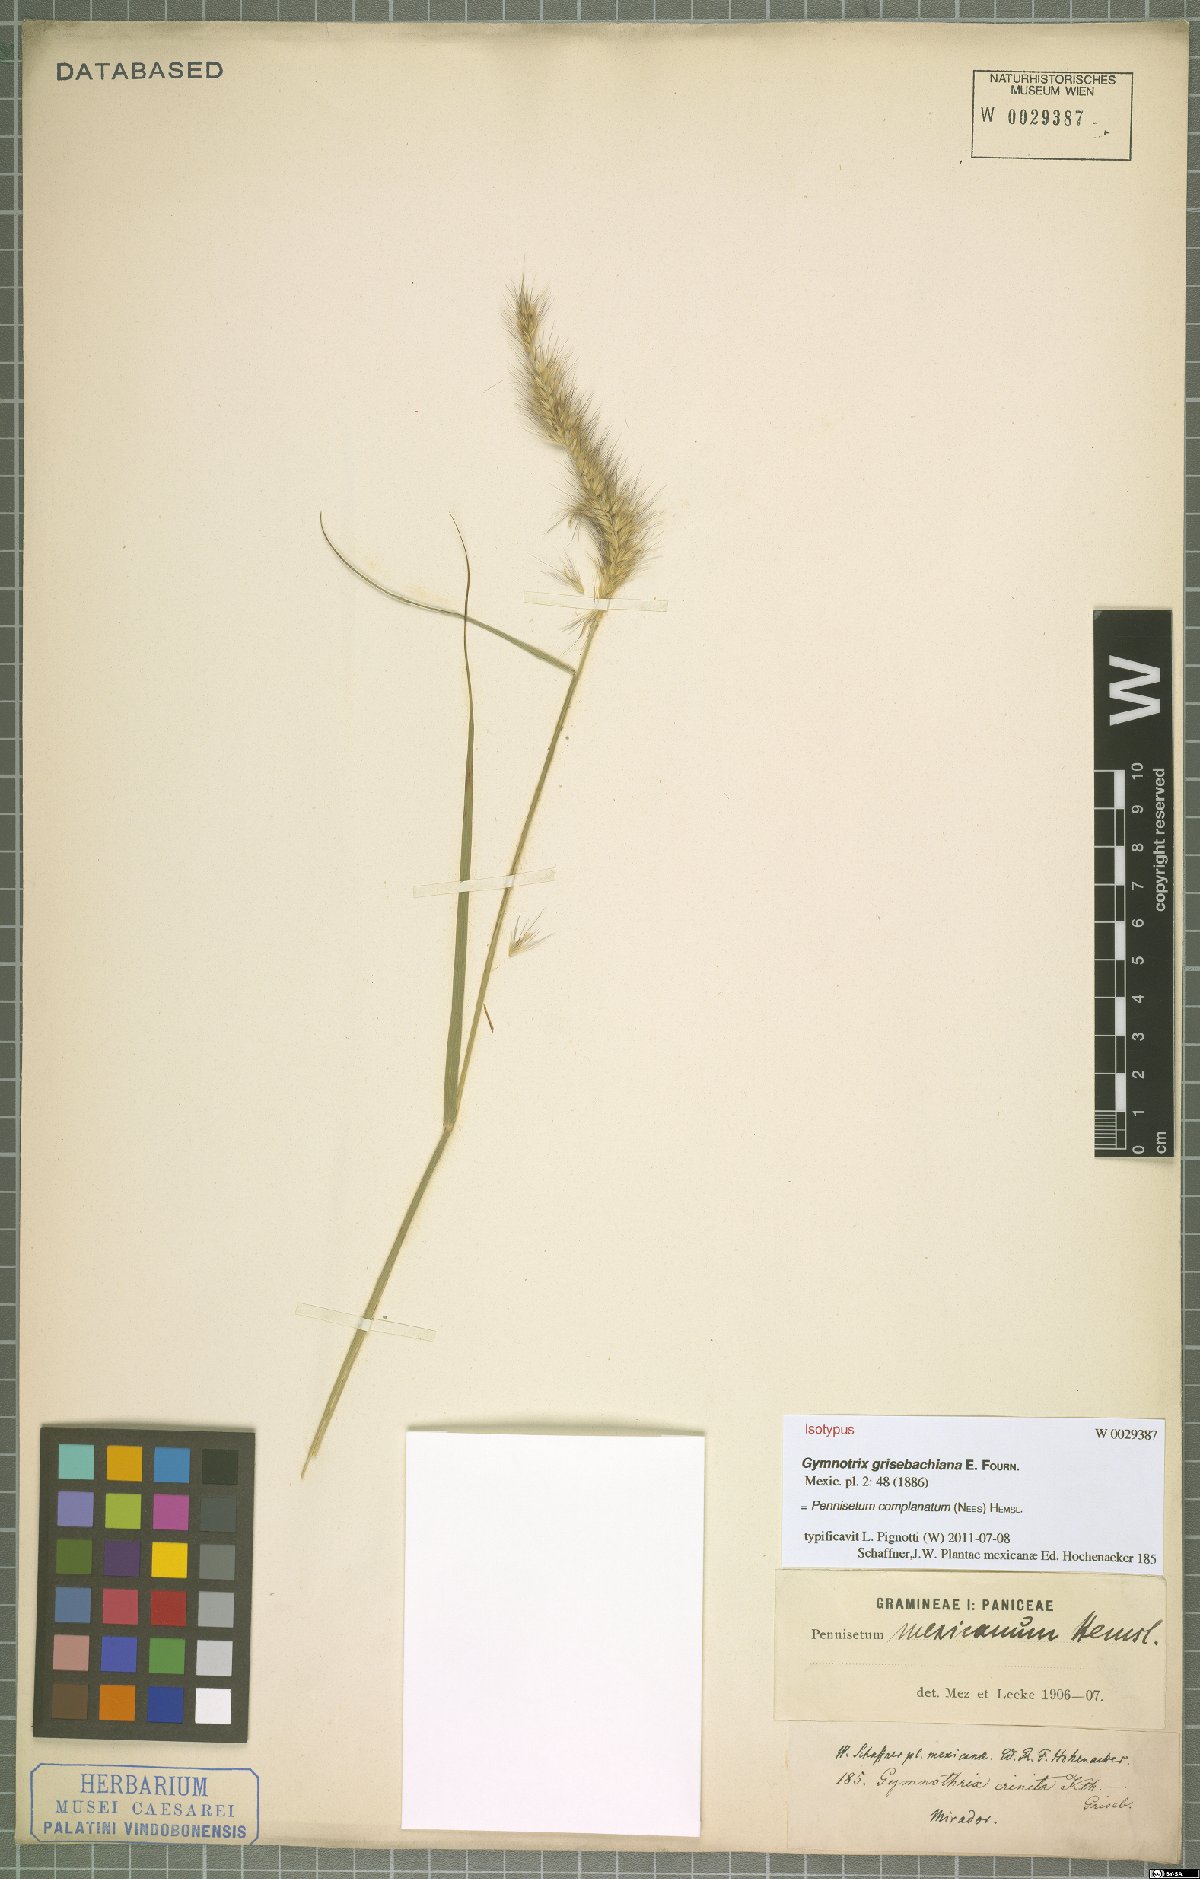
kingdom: Plantae
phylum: Tracheophyta
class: Liliopsida
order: Poales
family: Poaceae
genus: Cenchrus
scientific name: Cenchrus complanatus
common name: Nicaraguan fountaingrass
